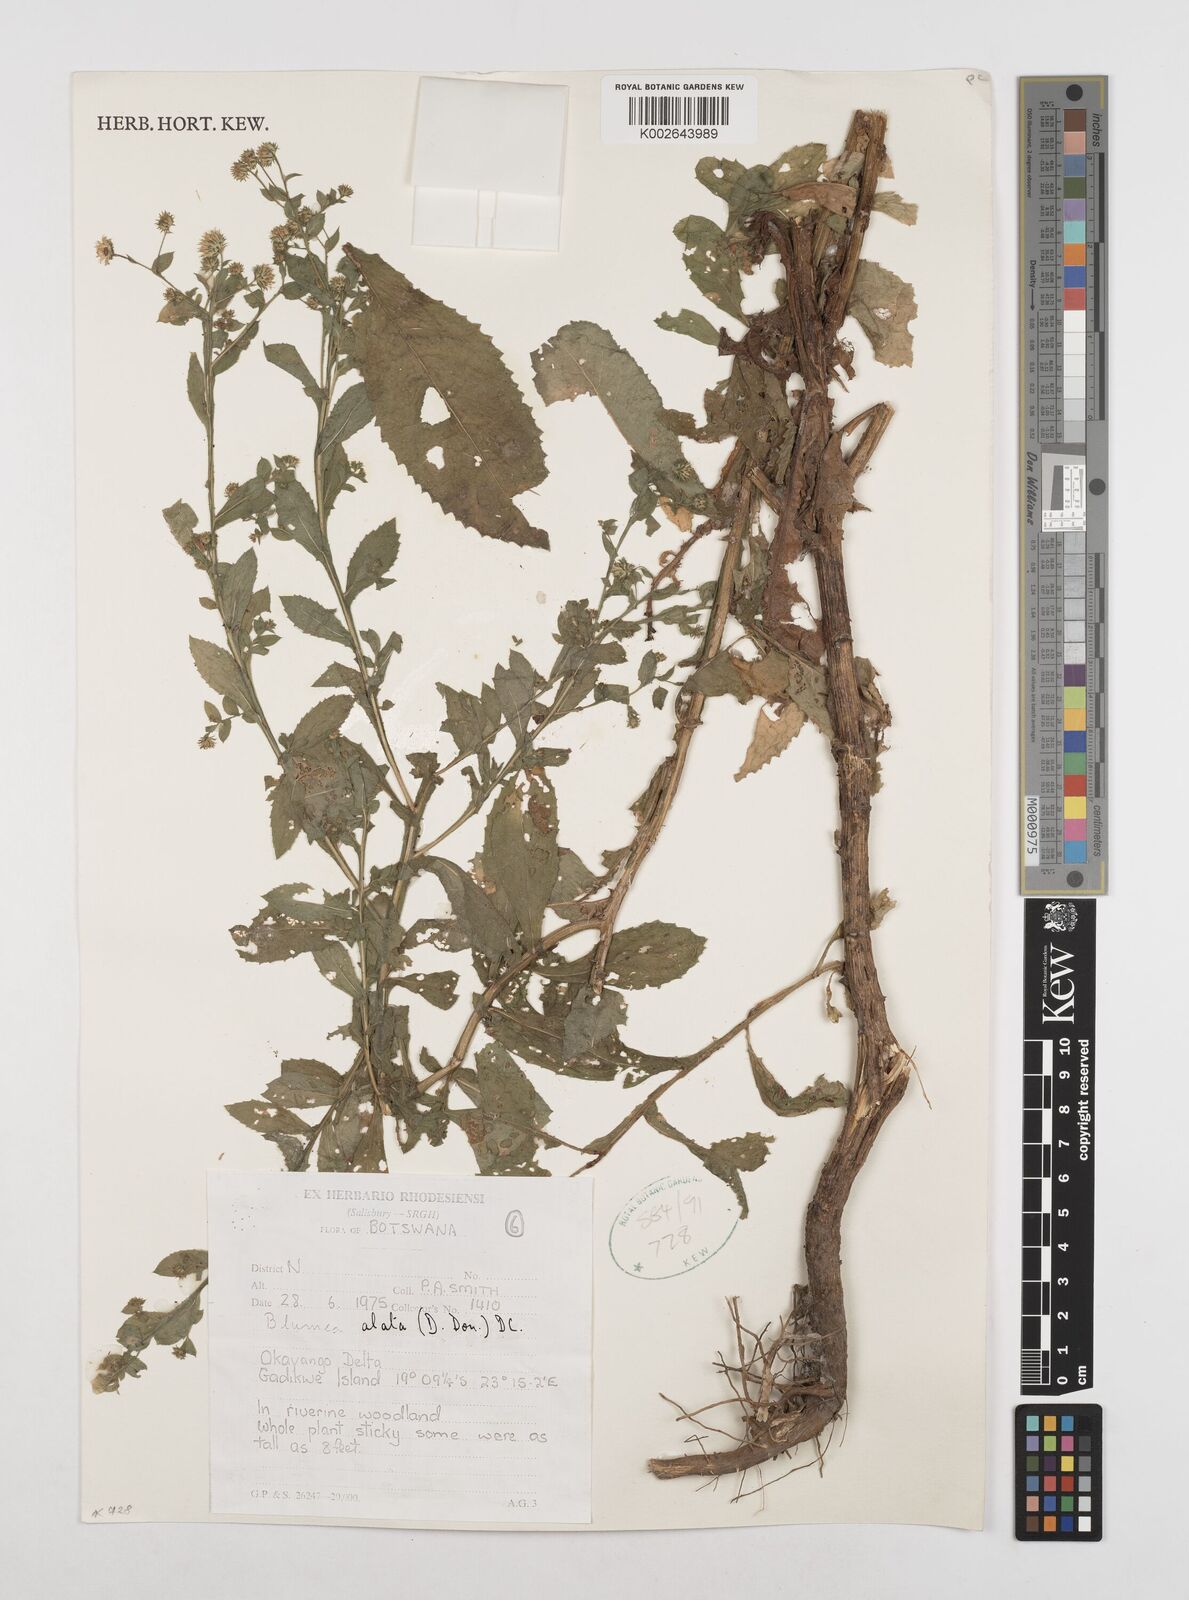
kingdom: Plantae
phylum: Tracheophyta
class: Magnoliopsida
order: Asterales
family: Asteraceae
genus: Laggera
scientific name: Laggera alata
